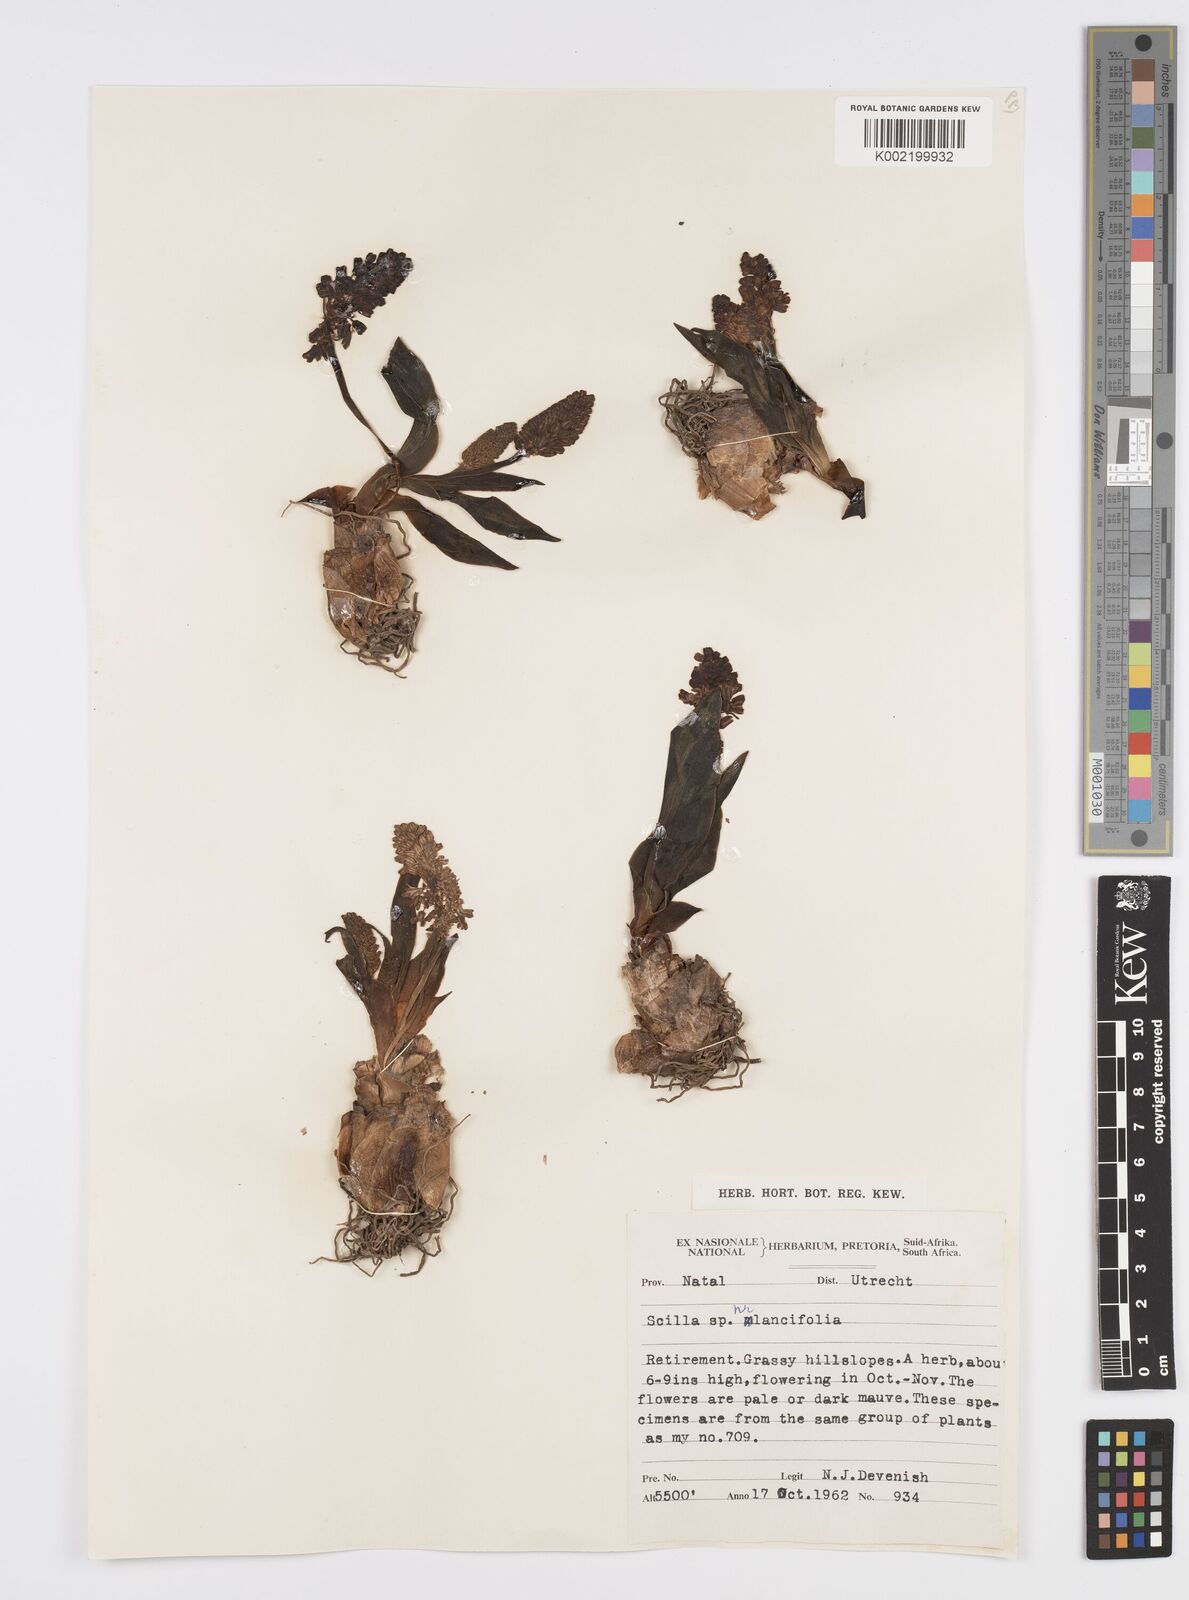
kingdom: Plantae
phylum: Tracheophyta
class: Liliopsida
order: Asparagales
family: Asparagaceae
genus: Ledebouria
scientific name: Ledebouria revoluta
